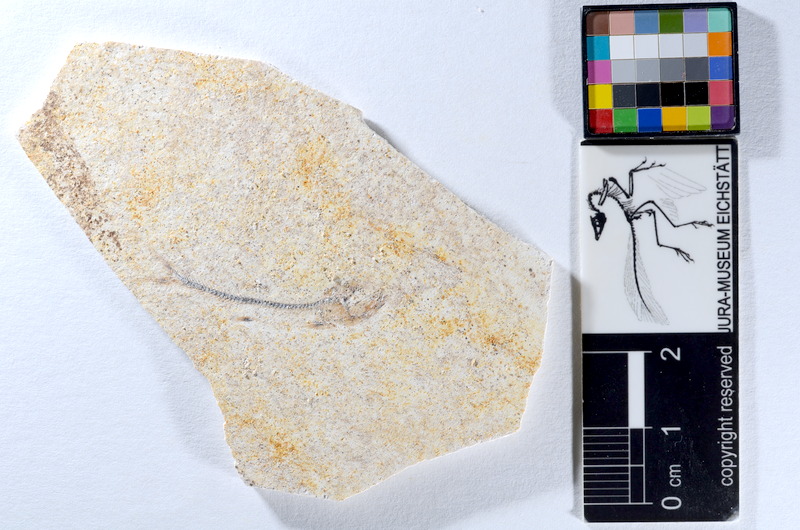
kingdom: Animalia
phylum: Chordata
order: Salmoniformes
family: Orthogonikleithridae
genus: Orthogonikleithrus
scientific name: Orthogonikleithrus hoelli
